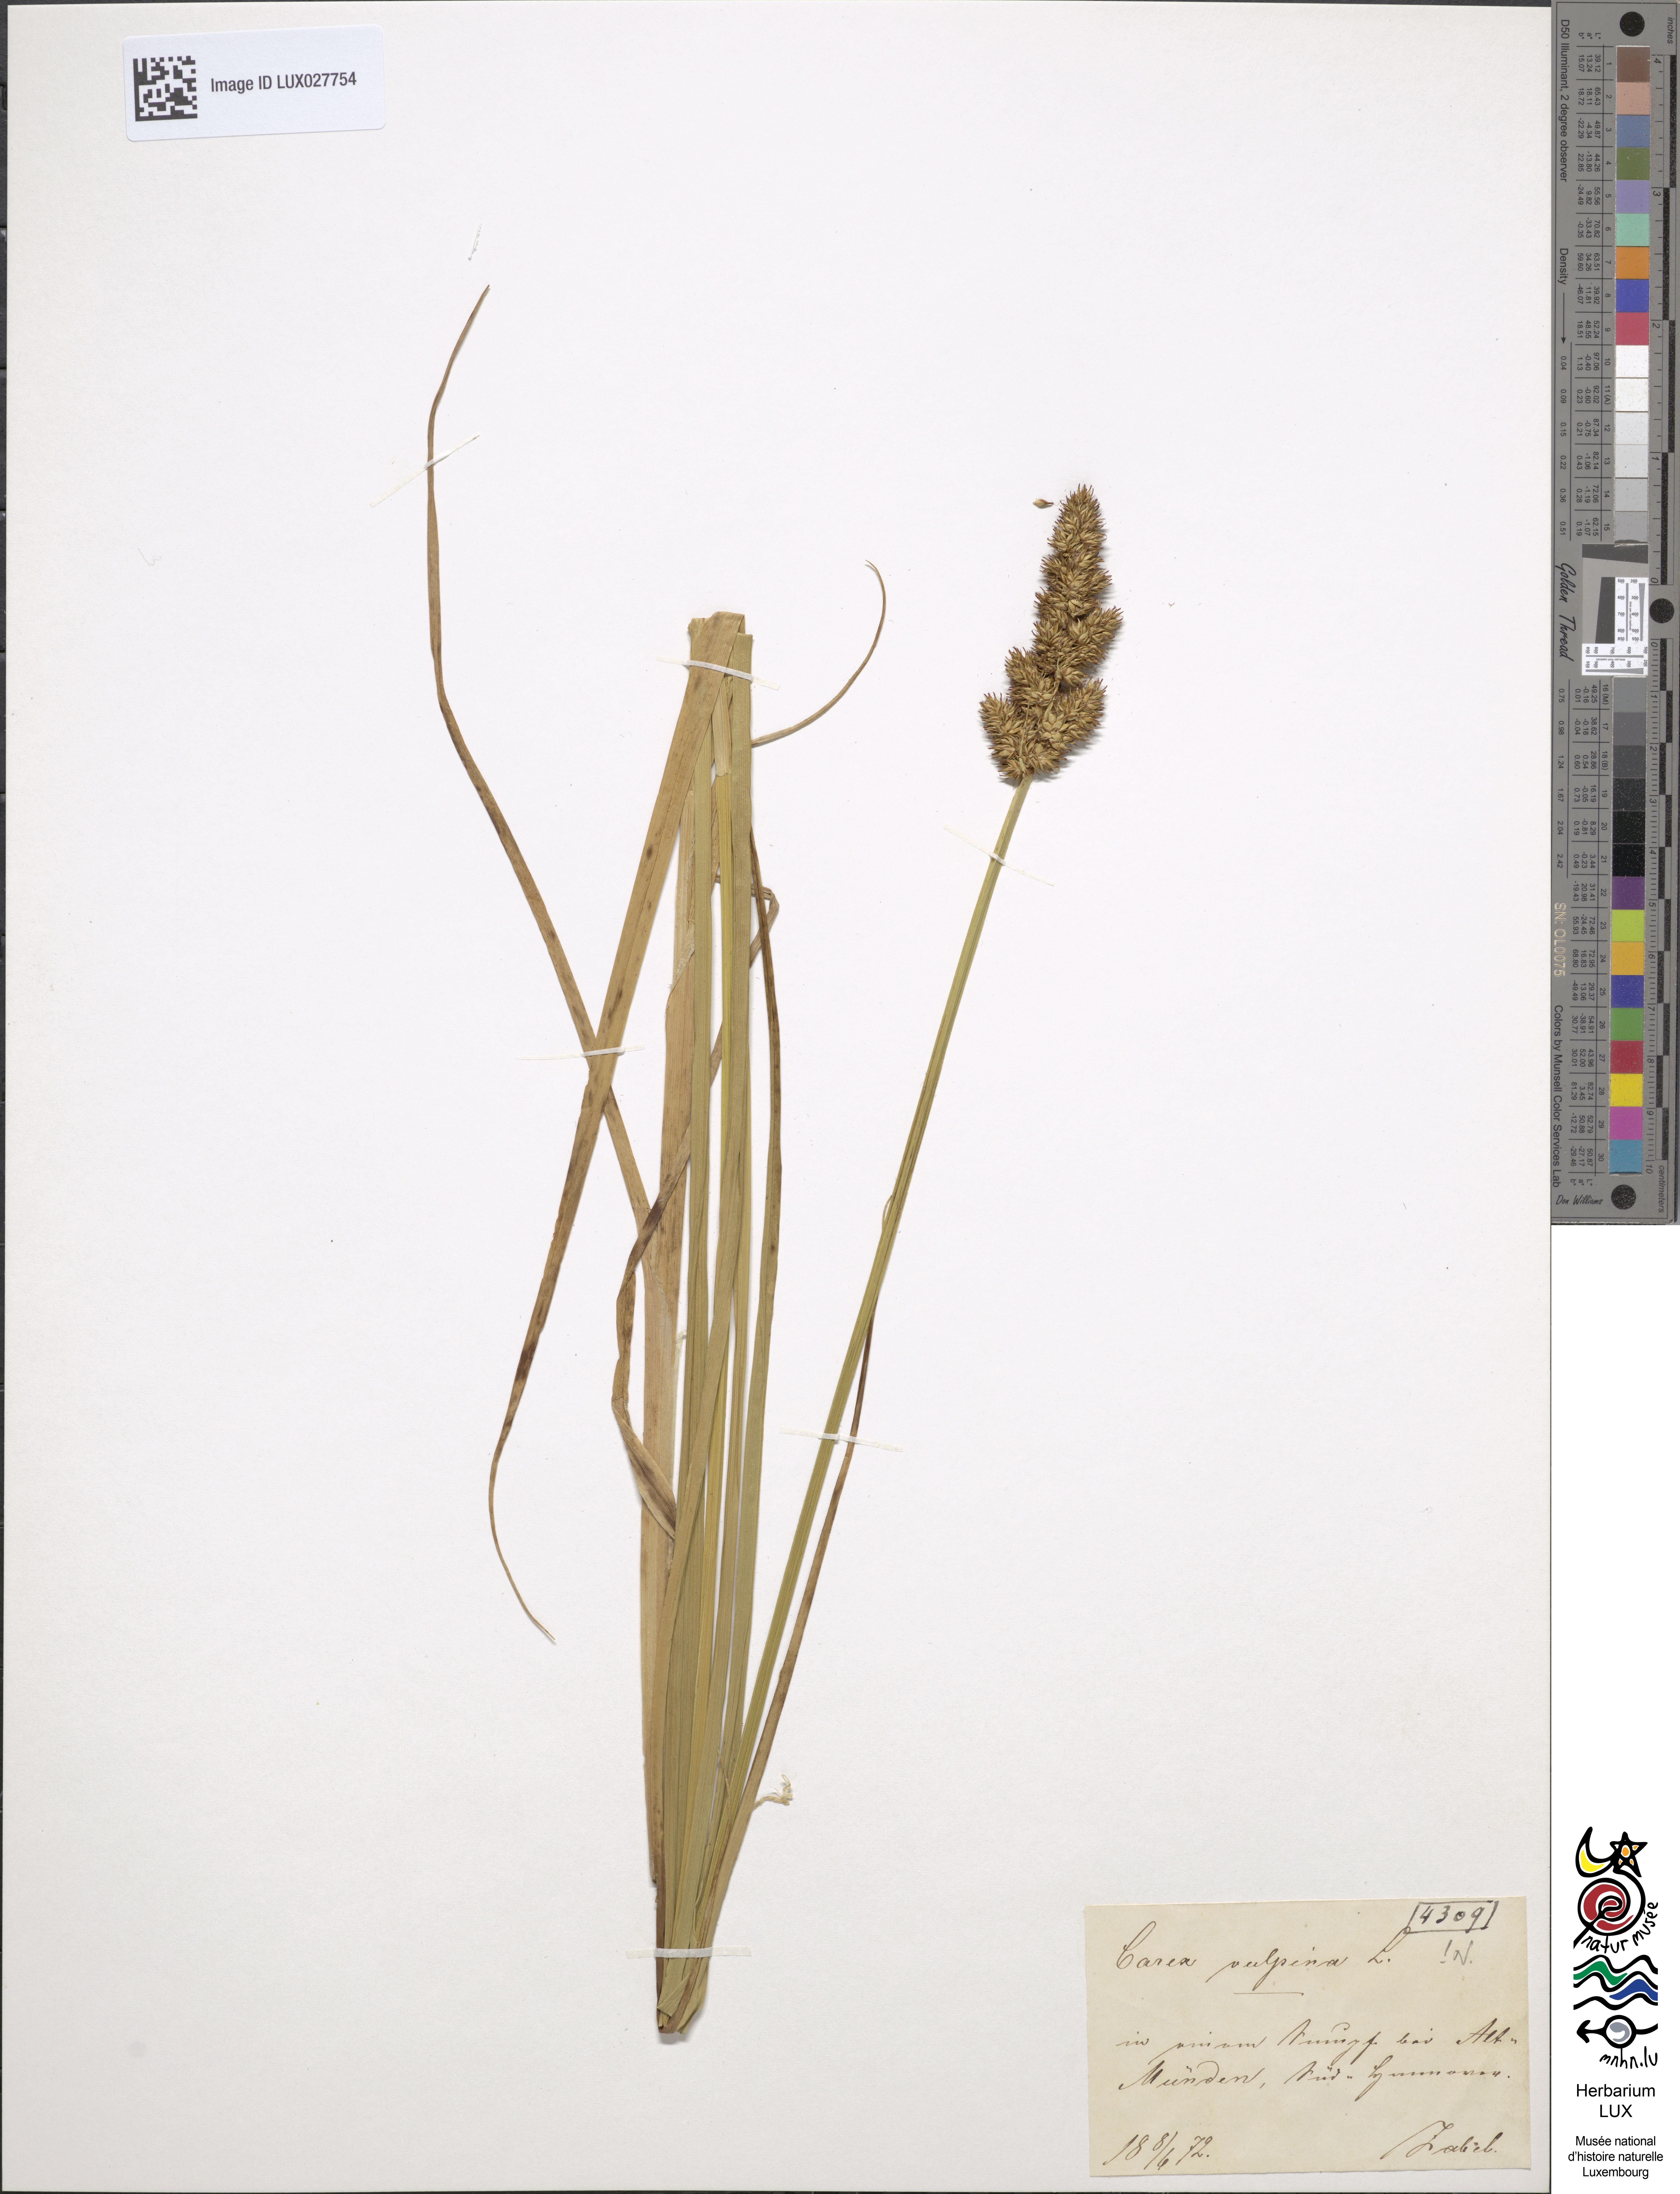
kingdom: Plantae
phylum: Tracheophyta
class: Liliopsida
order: Poales
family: Cyperaceae
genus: Carex
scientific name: Carex vulpina
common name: True fox-sedge
